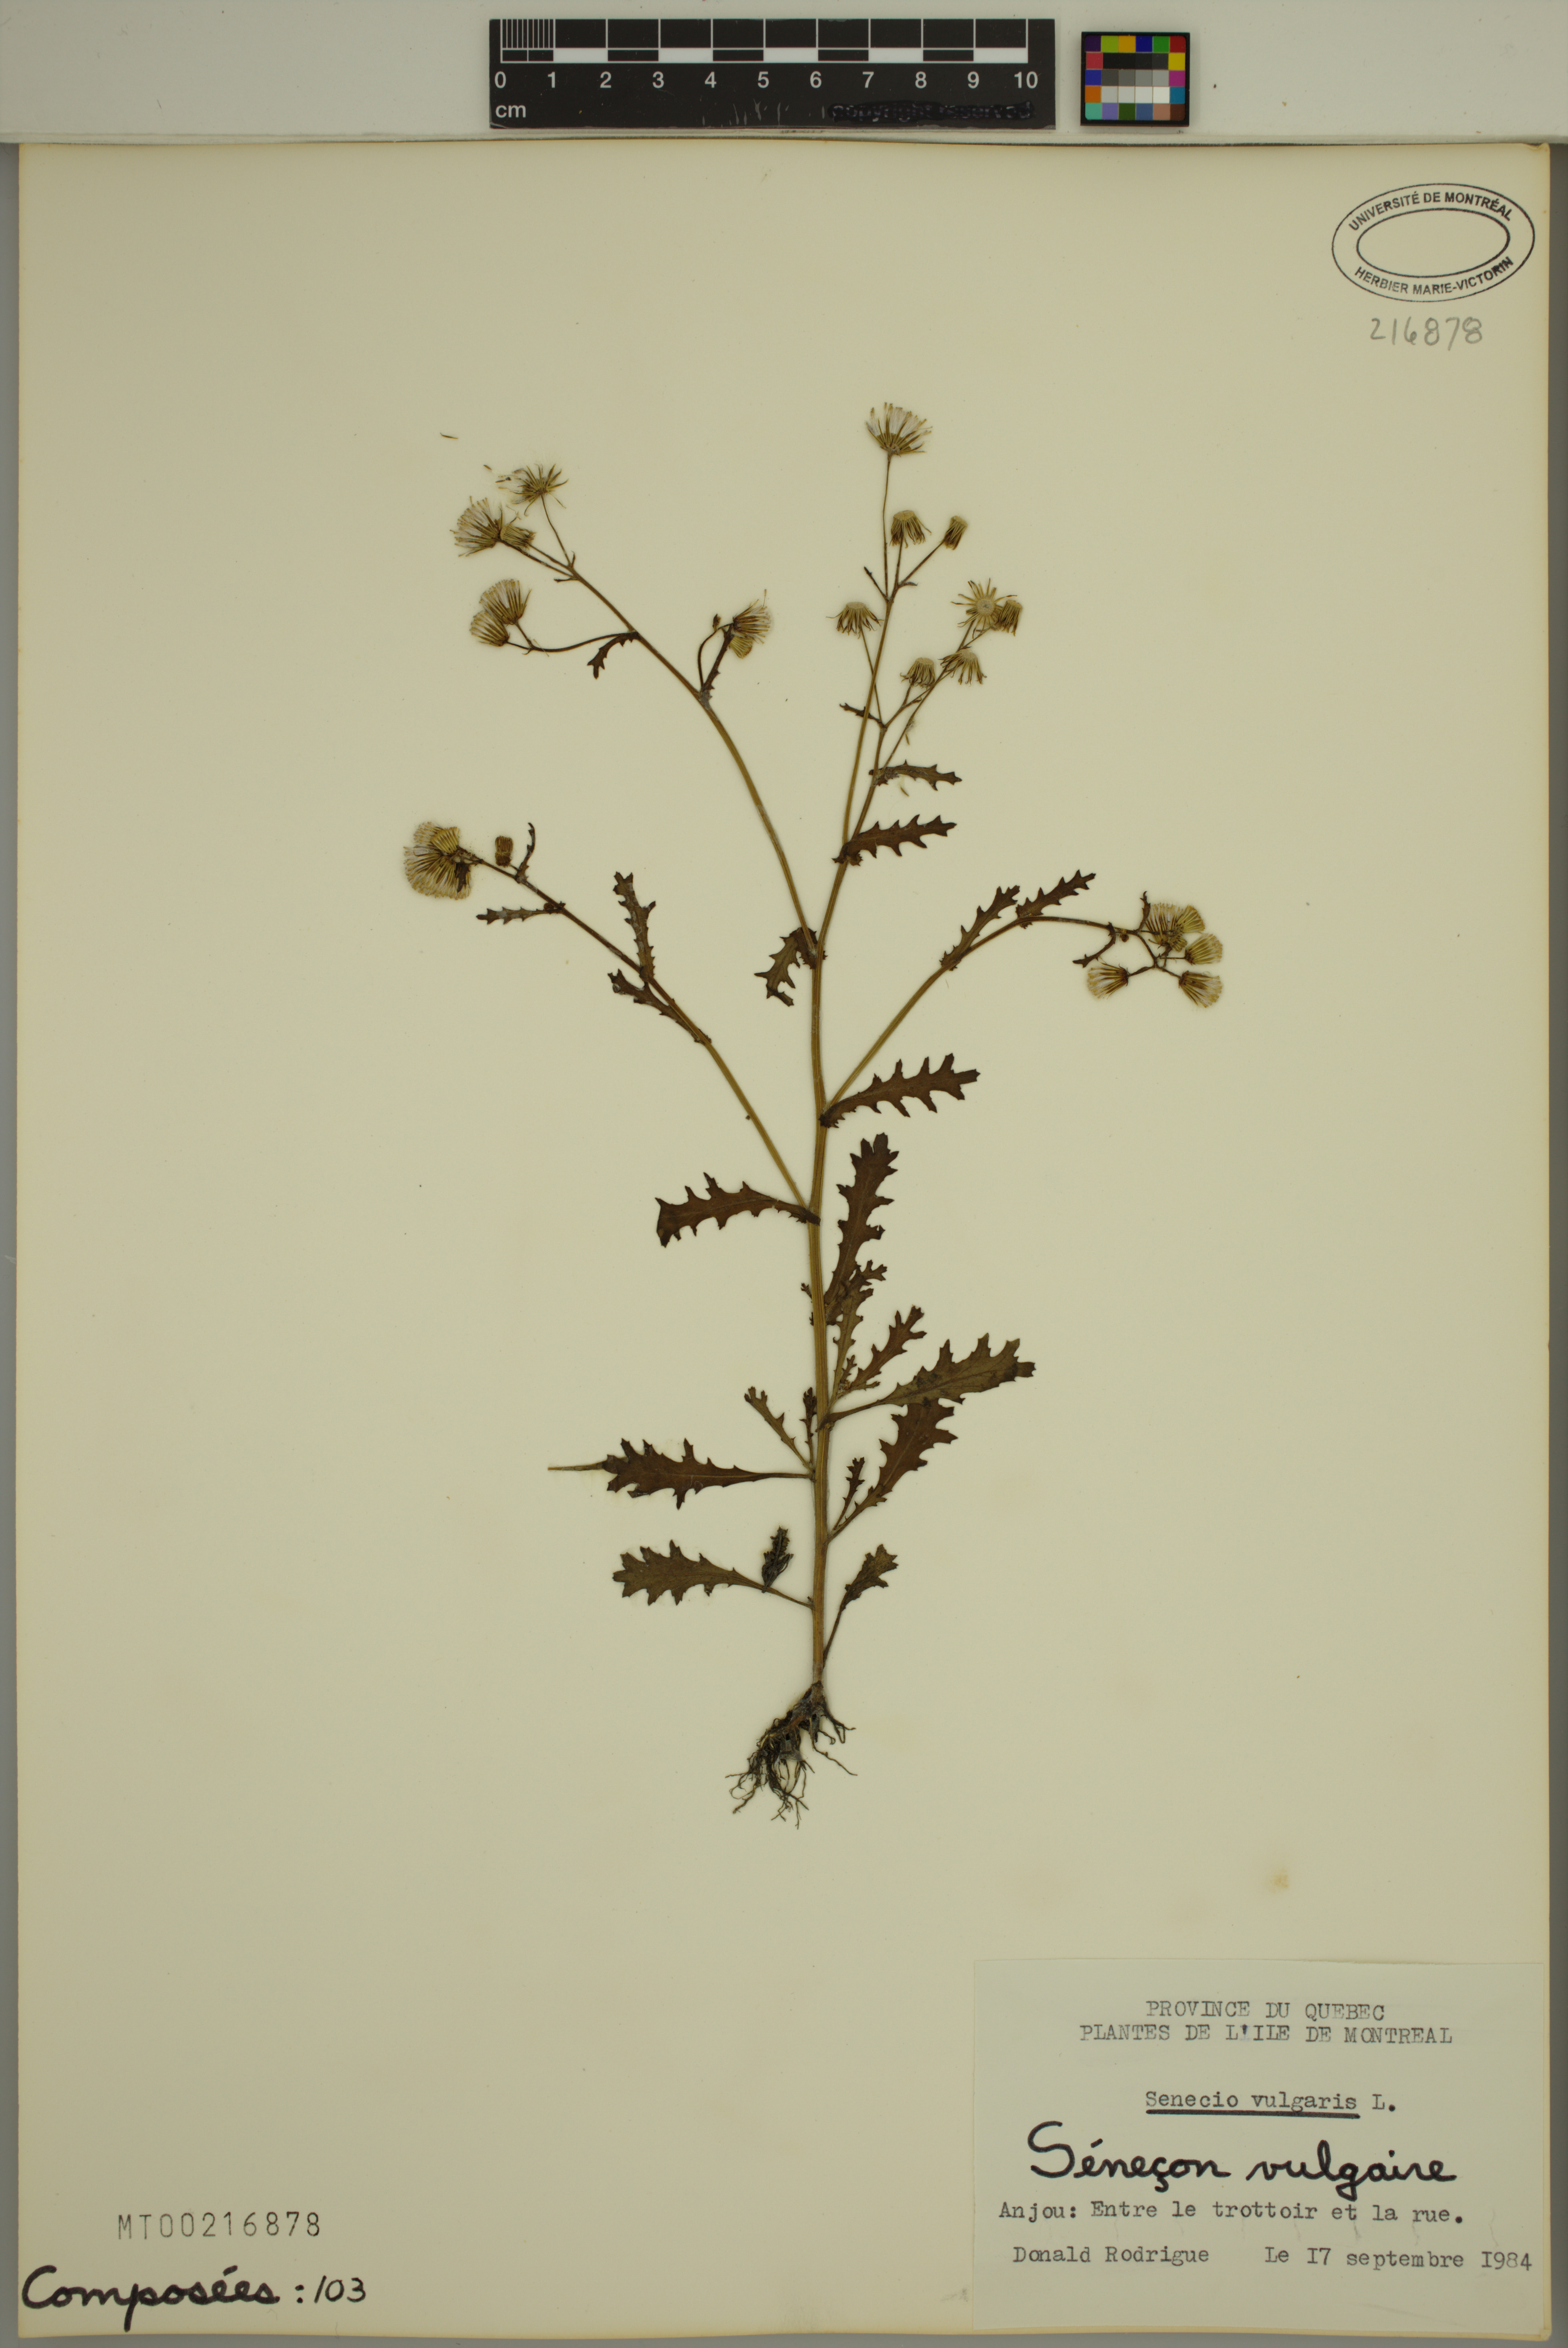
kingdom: Plantae
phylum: Tracheophyta
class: Magnoliopsida
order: Asterales
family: Asteraceae
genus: Senecio
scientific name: Senecio vulgaris
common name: Old-man-in-the-spring
